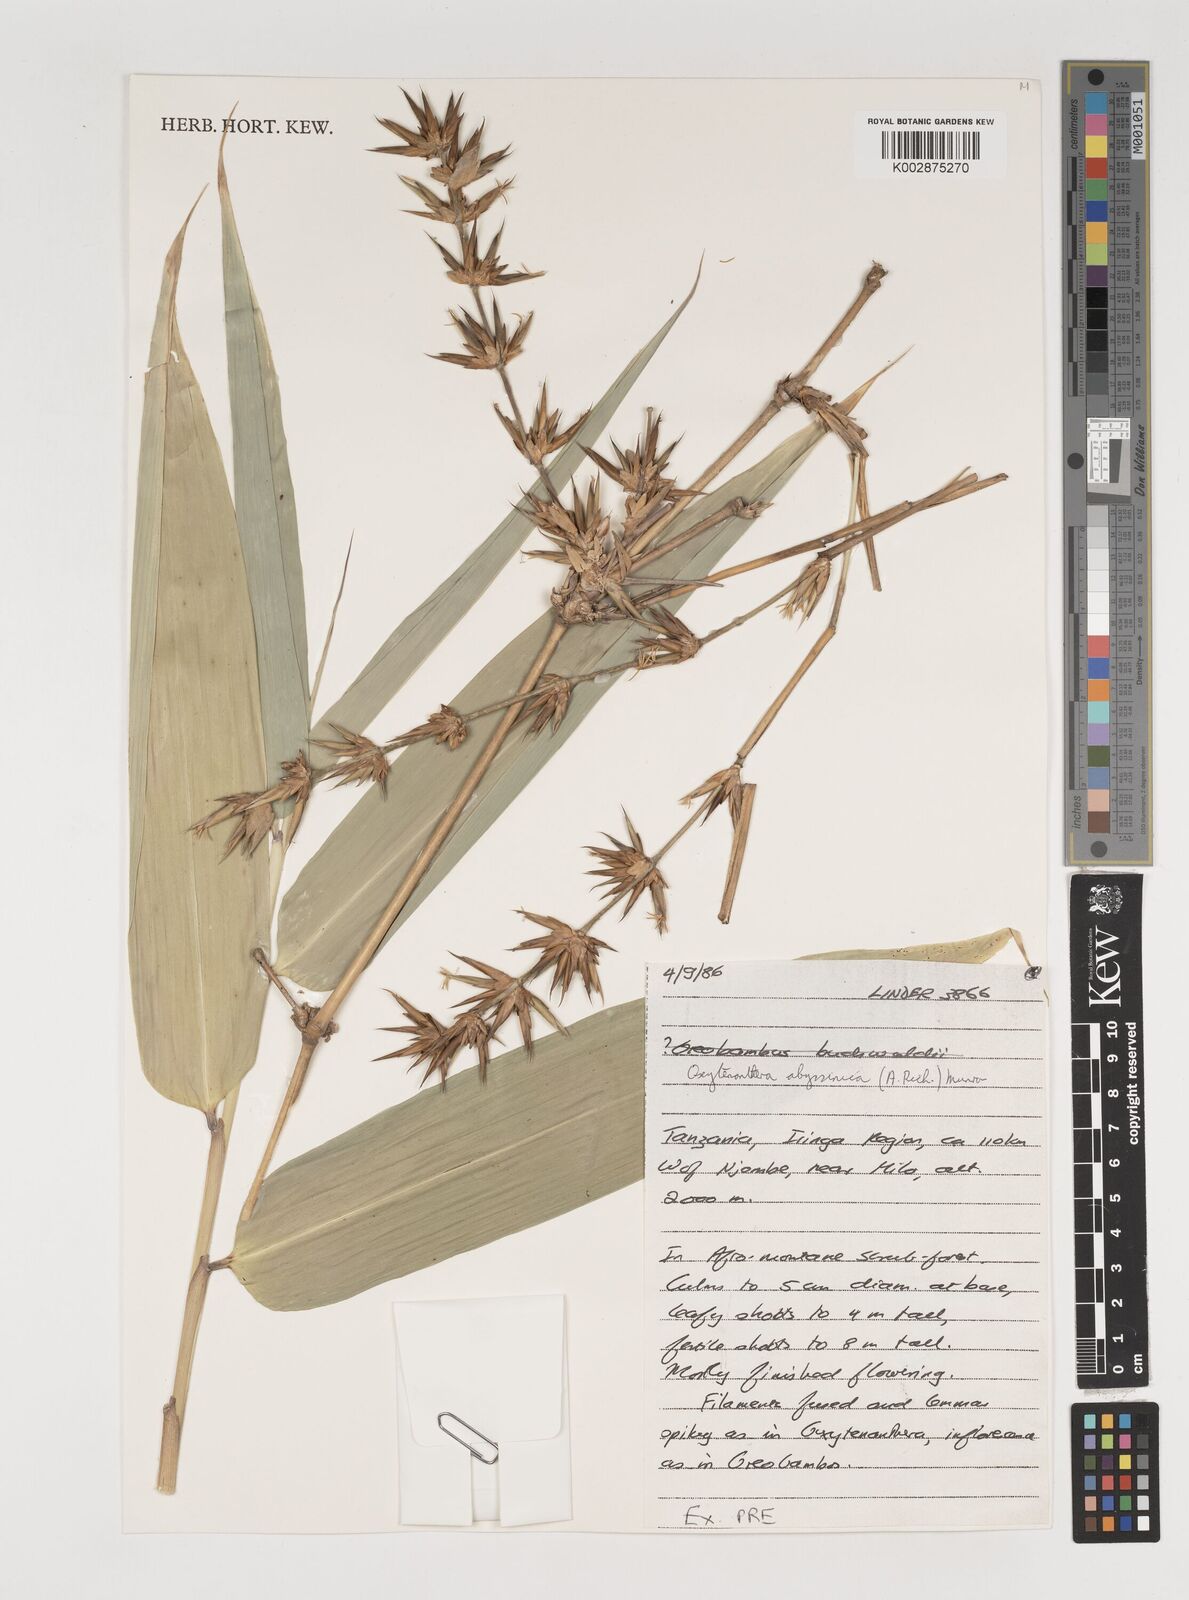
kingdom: Plantae
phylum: Tracheophyta
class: Liliopsida
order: Poales
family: Poaceae
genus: Oxytenanthera
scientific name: Oxytenanthera
